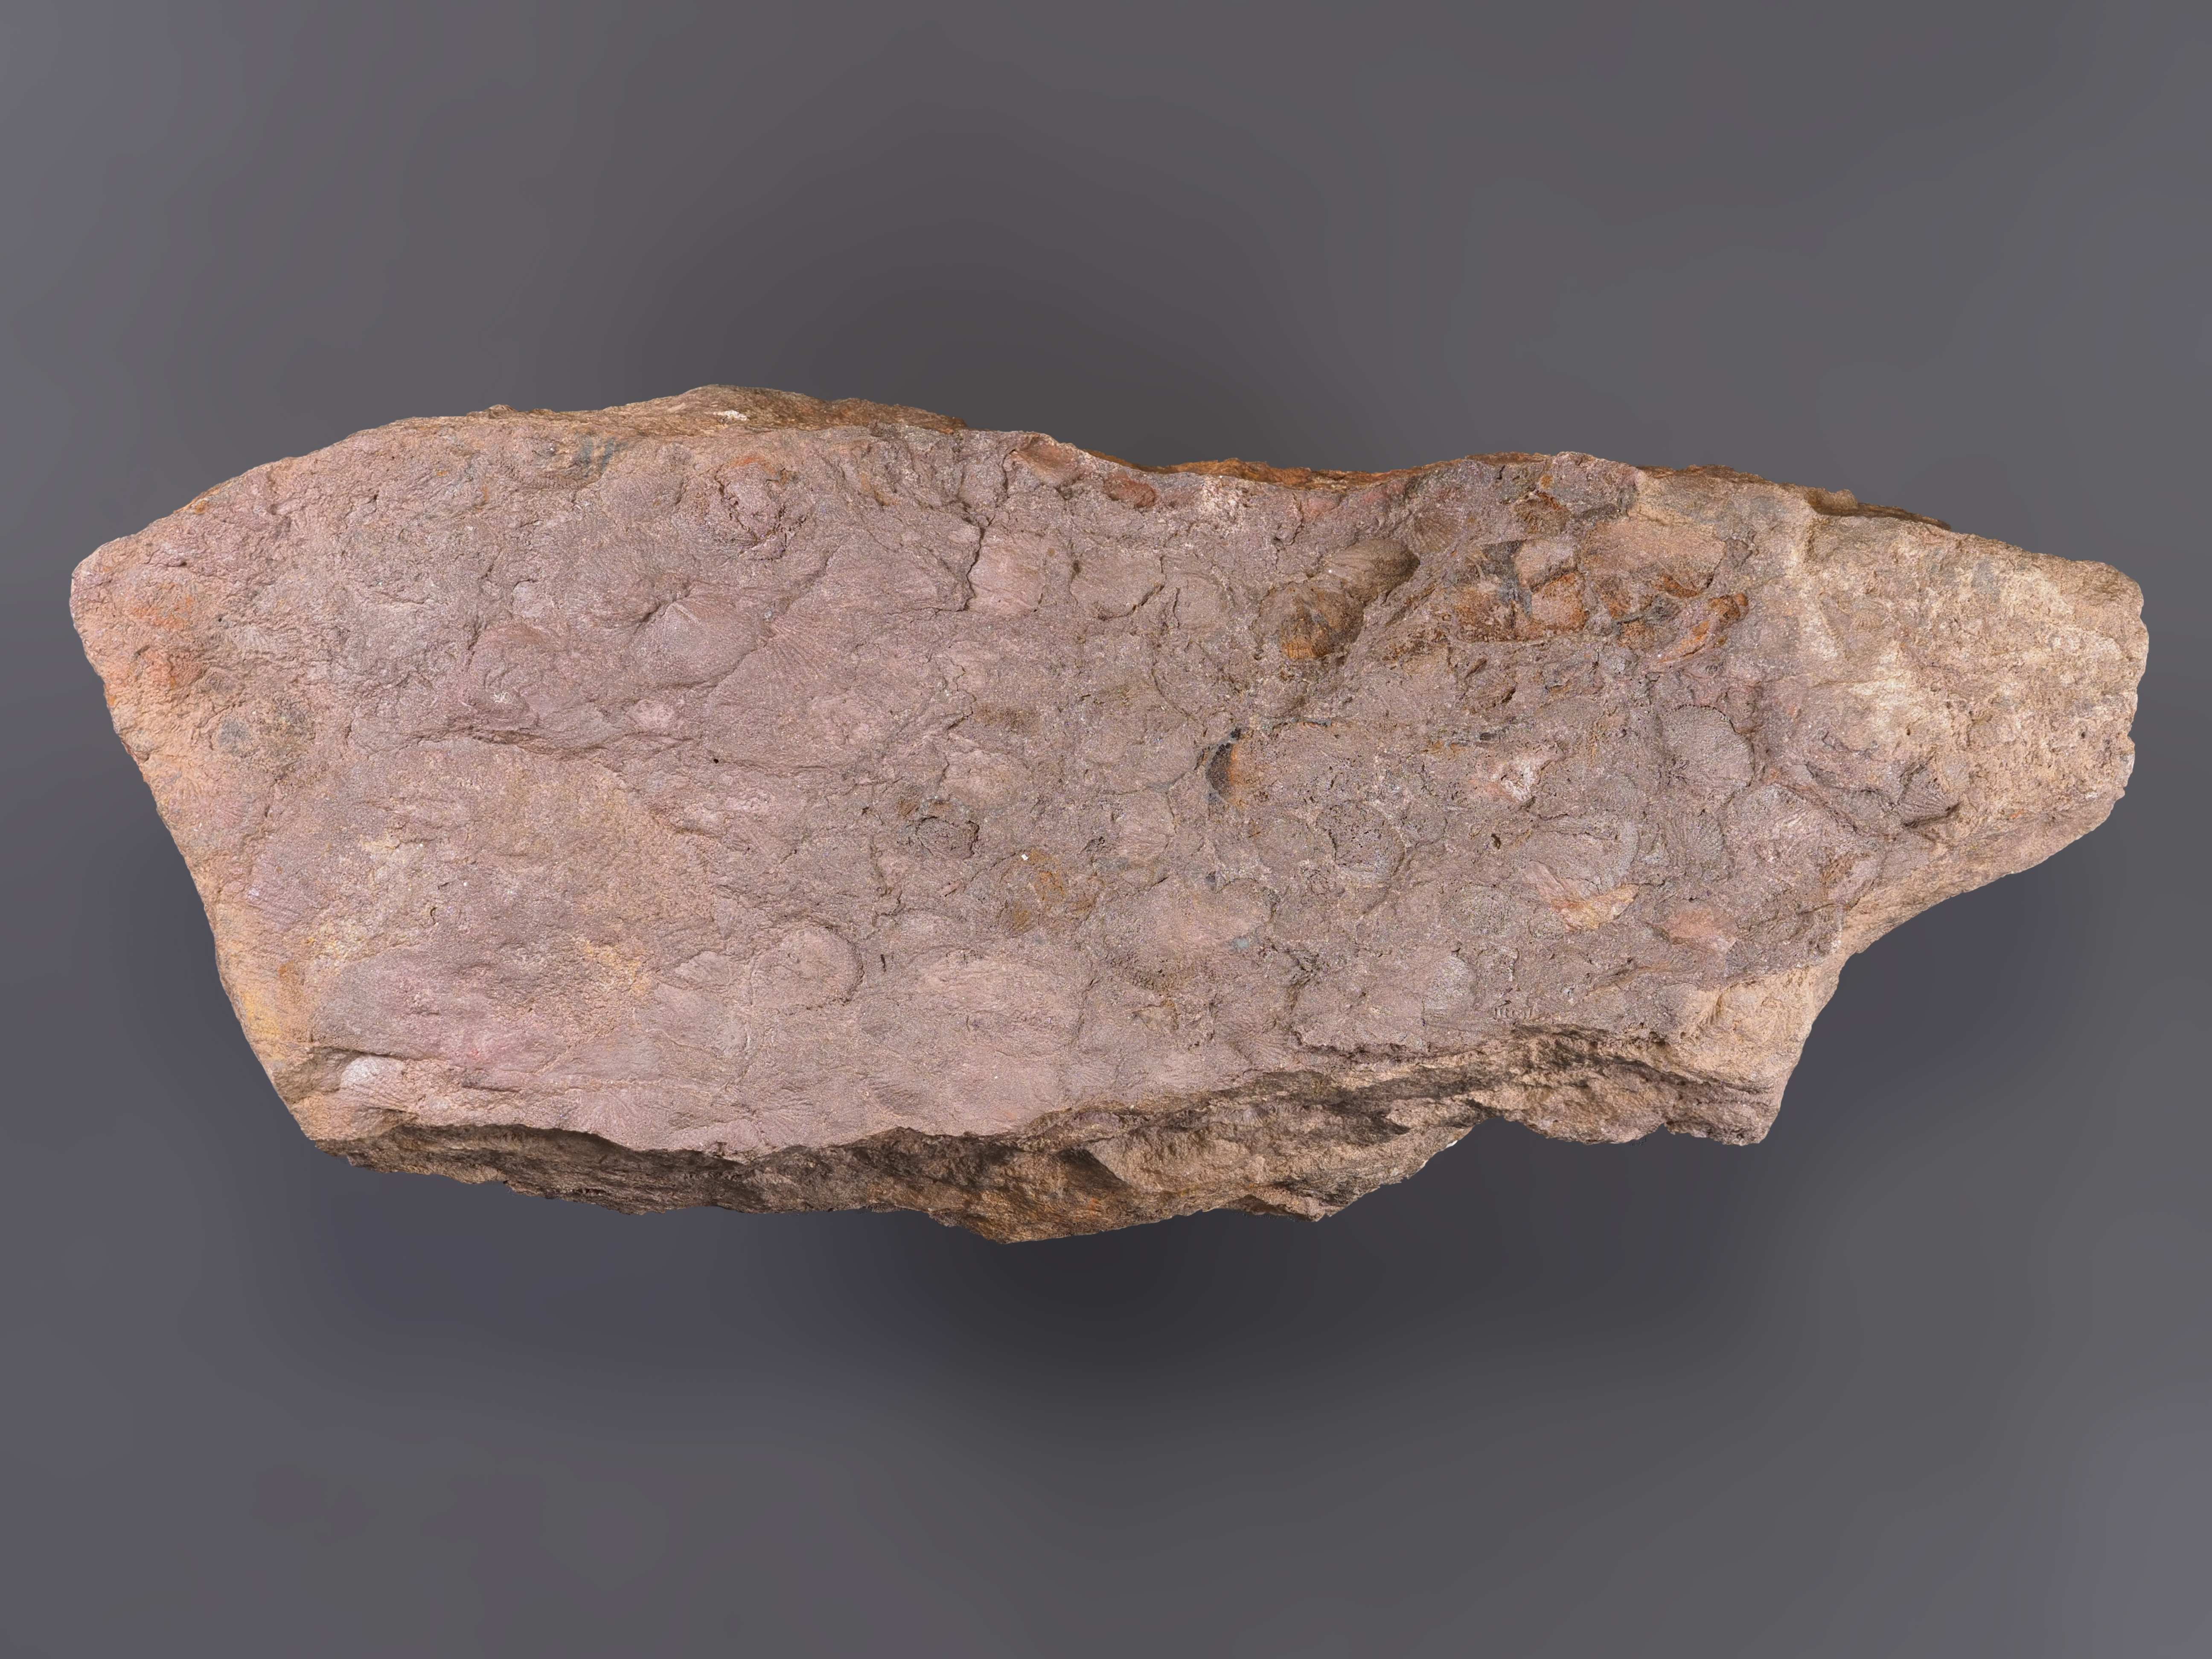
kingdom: Animalia
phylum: Brachiopoda
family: Chonetidae
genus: Plebejochonetes
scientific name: Plebejochonetes
